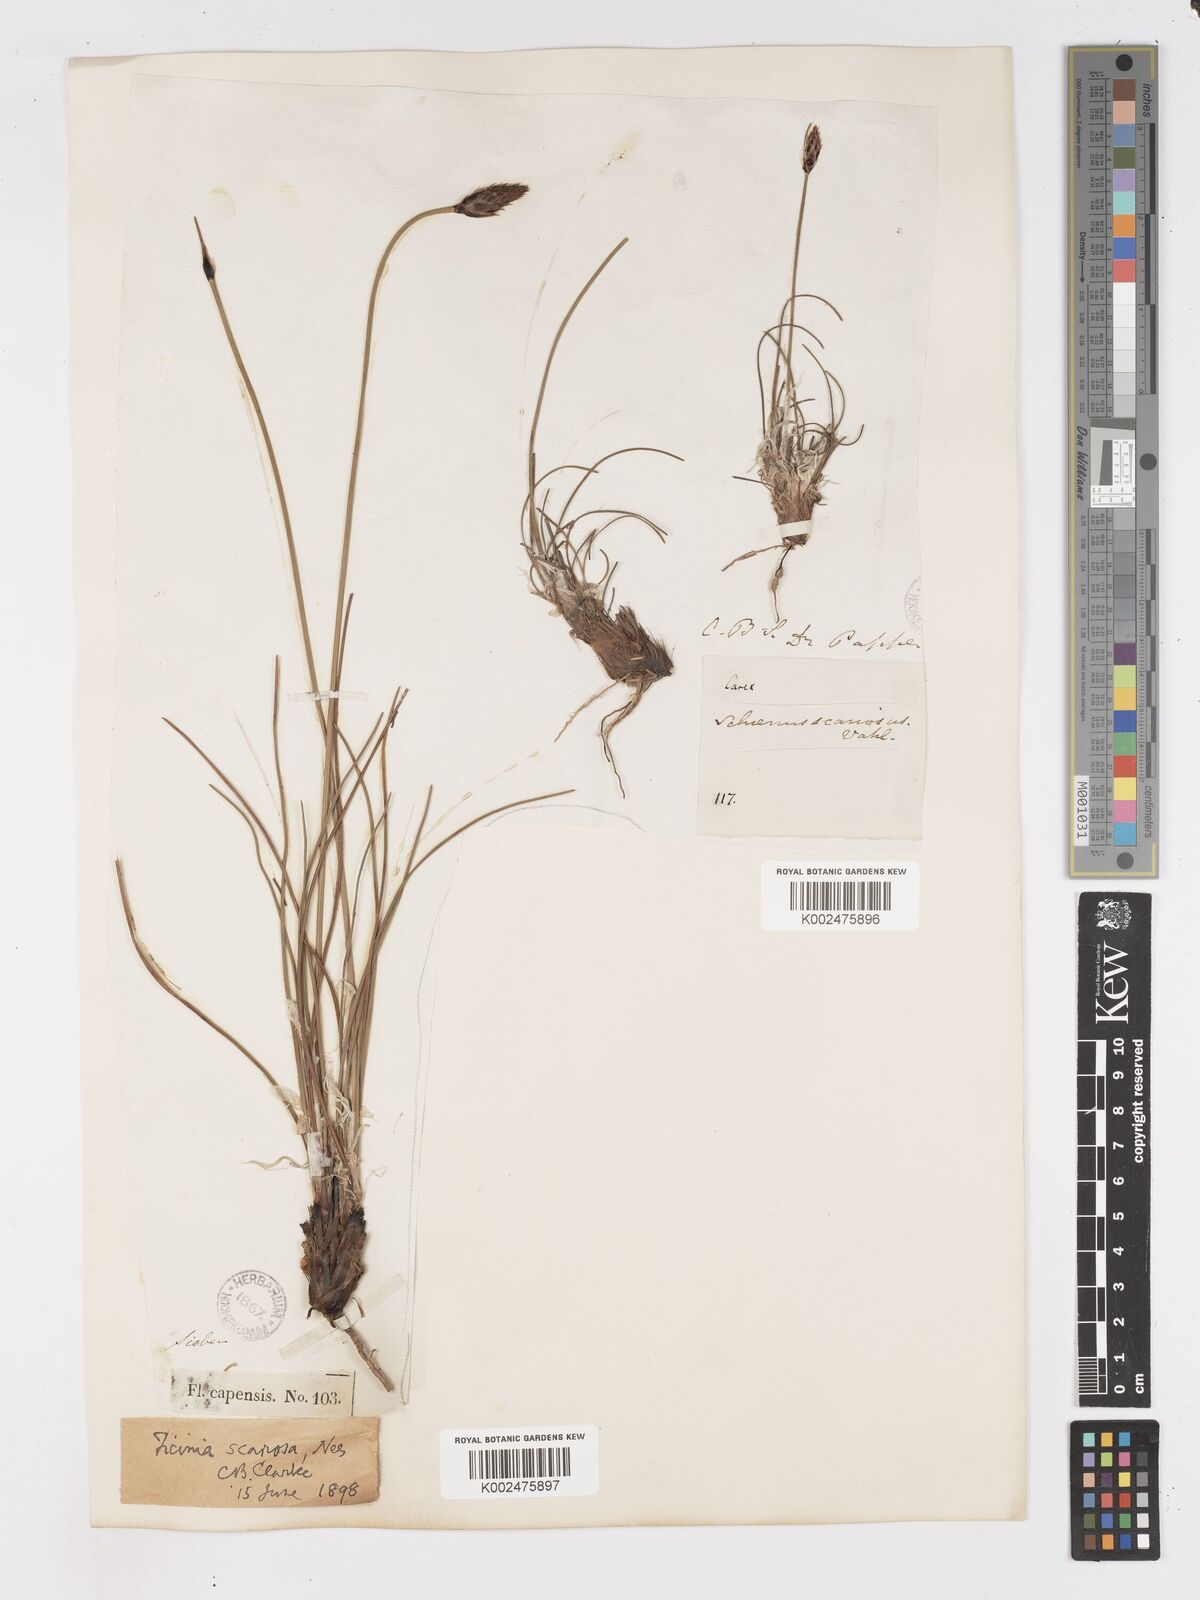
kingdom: Plantae
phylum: Tracheophyta
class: Liliopsida
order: Poales
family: Cyperaceae
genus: Ficinia
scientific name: Ficinia deusta
